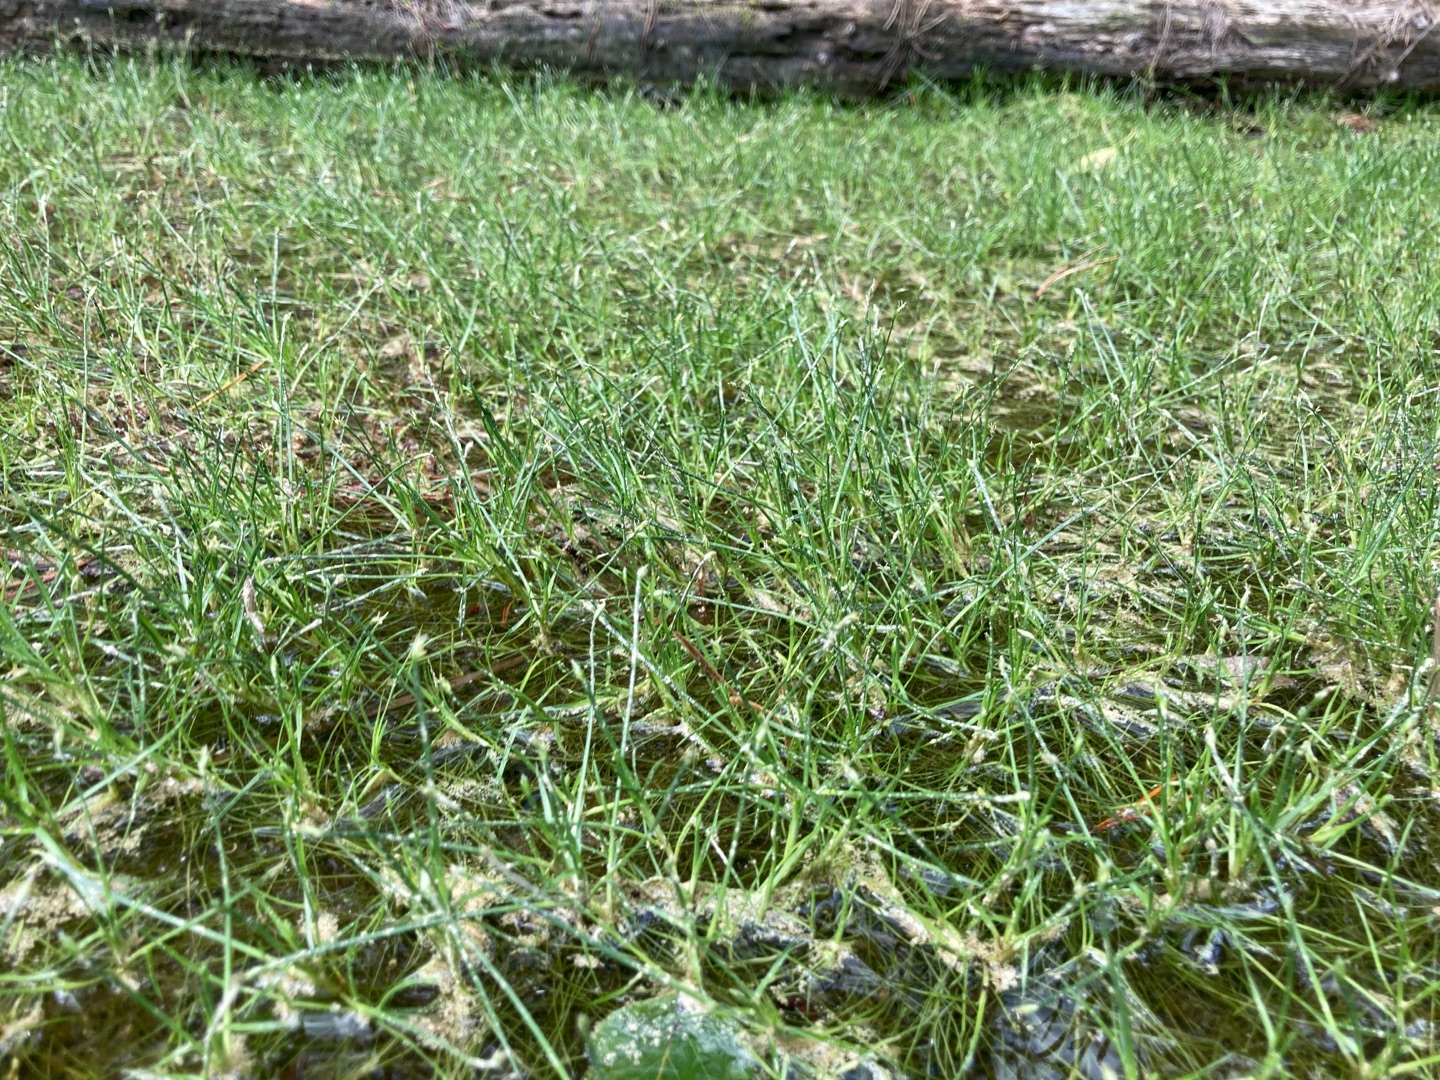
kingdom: Plantae
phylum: Tracheophyta
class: Liliopsida
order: Poales
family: Cyperaceae
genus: Isolepis
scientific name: Isolepis fluitans
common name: Flydende kogleaks
